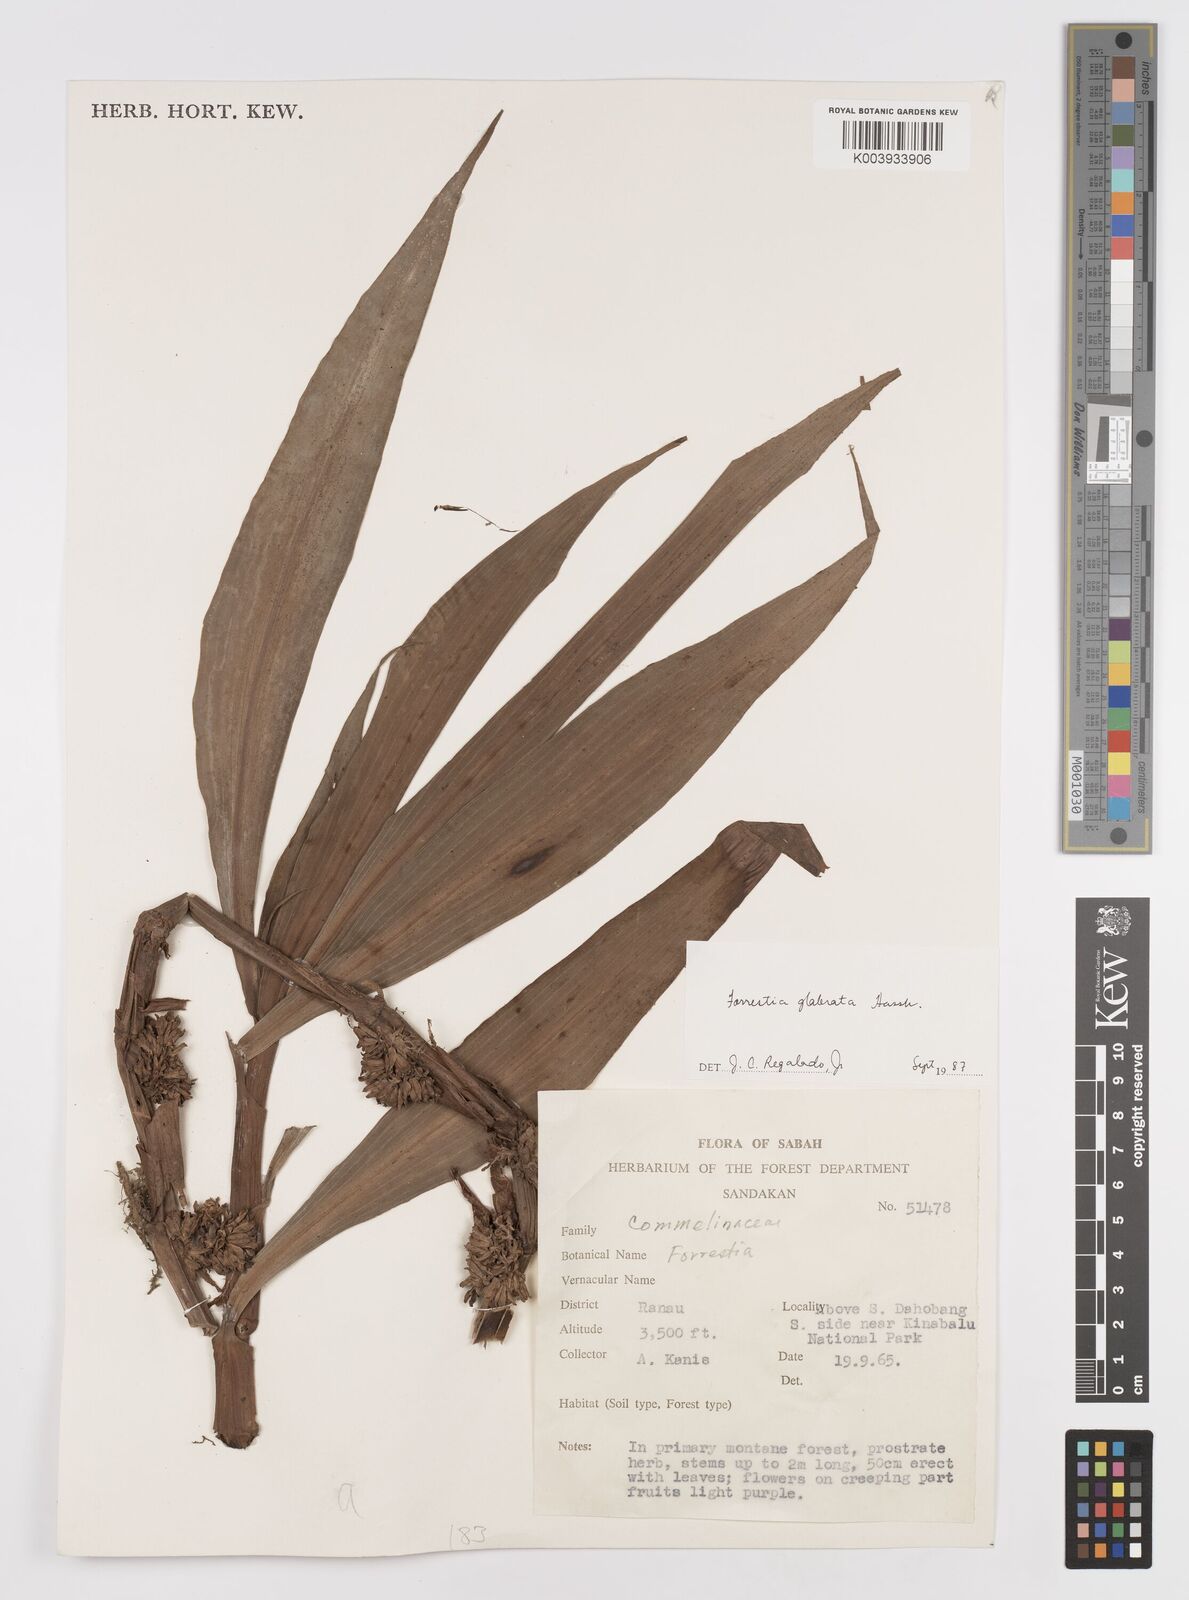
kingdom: Plantae
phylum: Tracheophyta
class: Liliopsida
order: Commelinales
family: Commelinaceae
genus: Amischotolype
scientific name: Amischotolype glabrata
